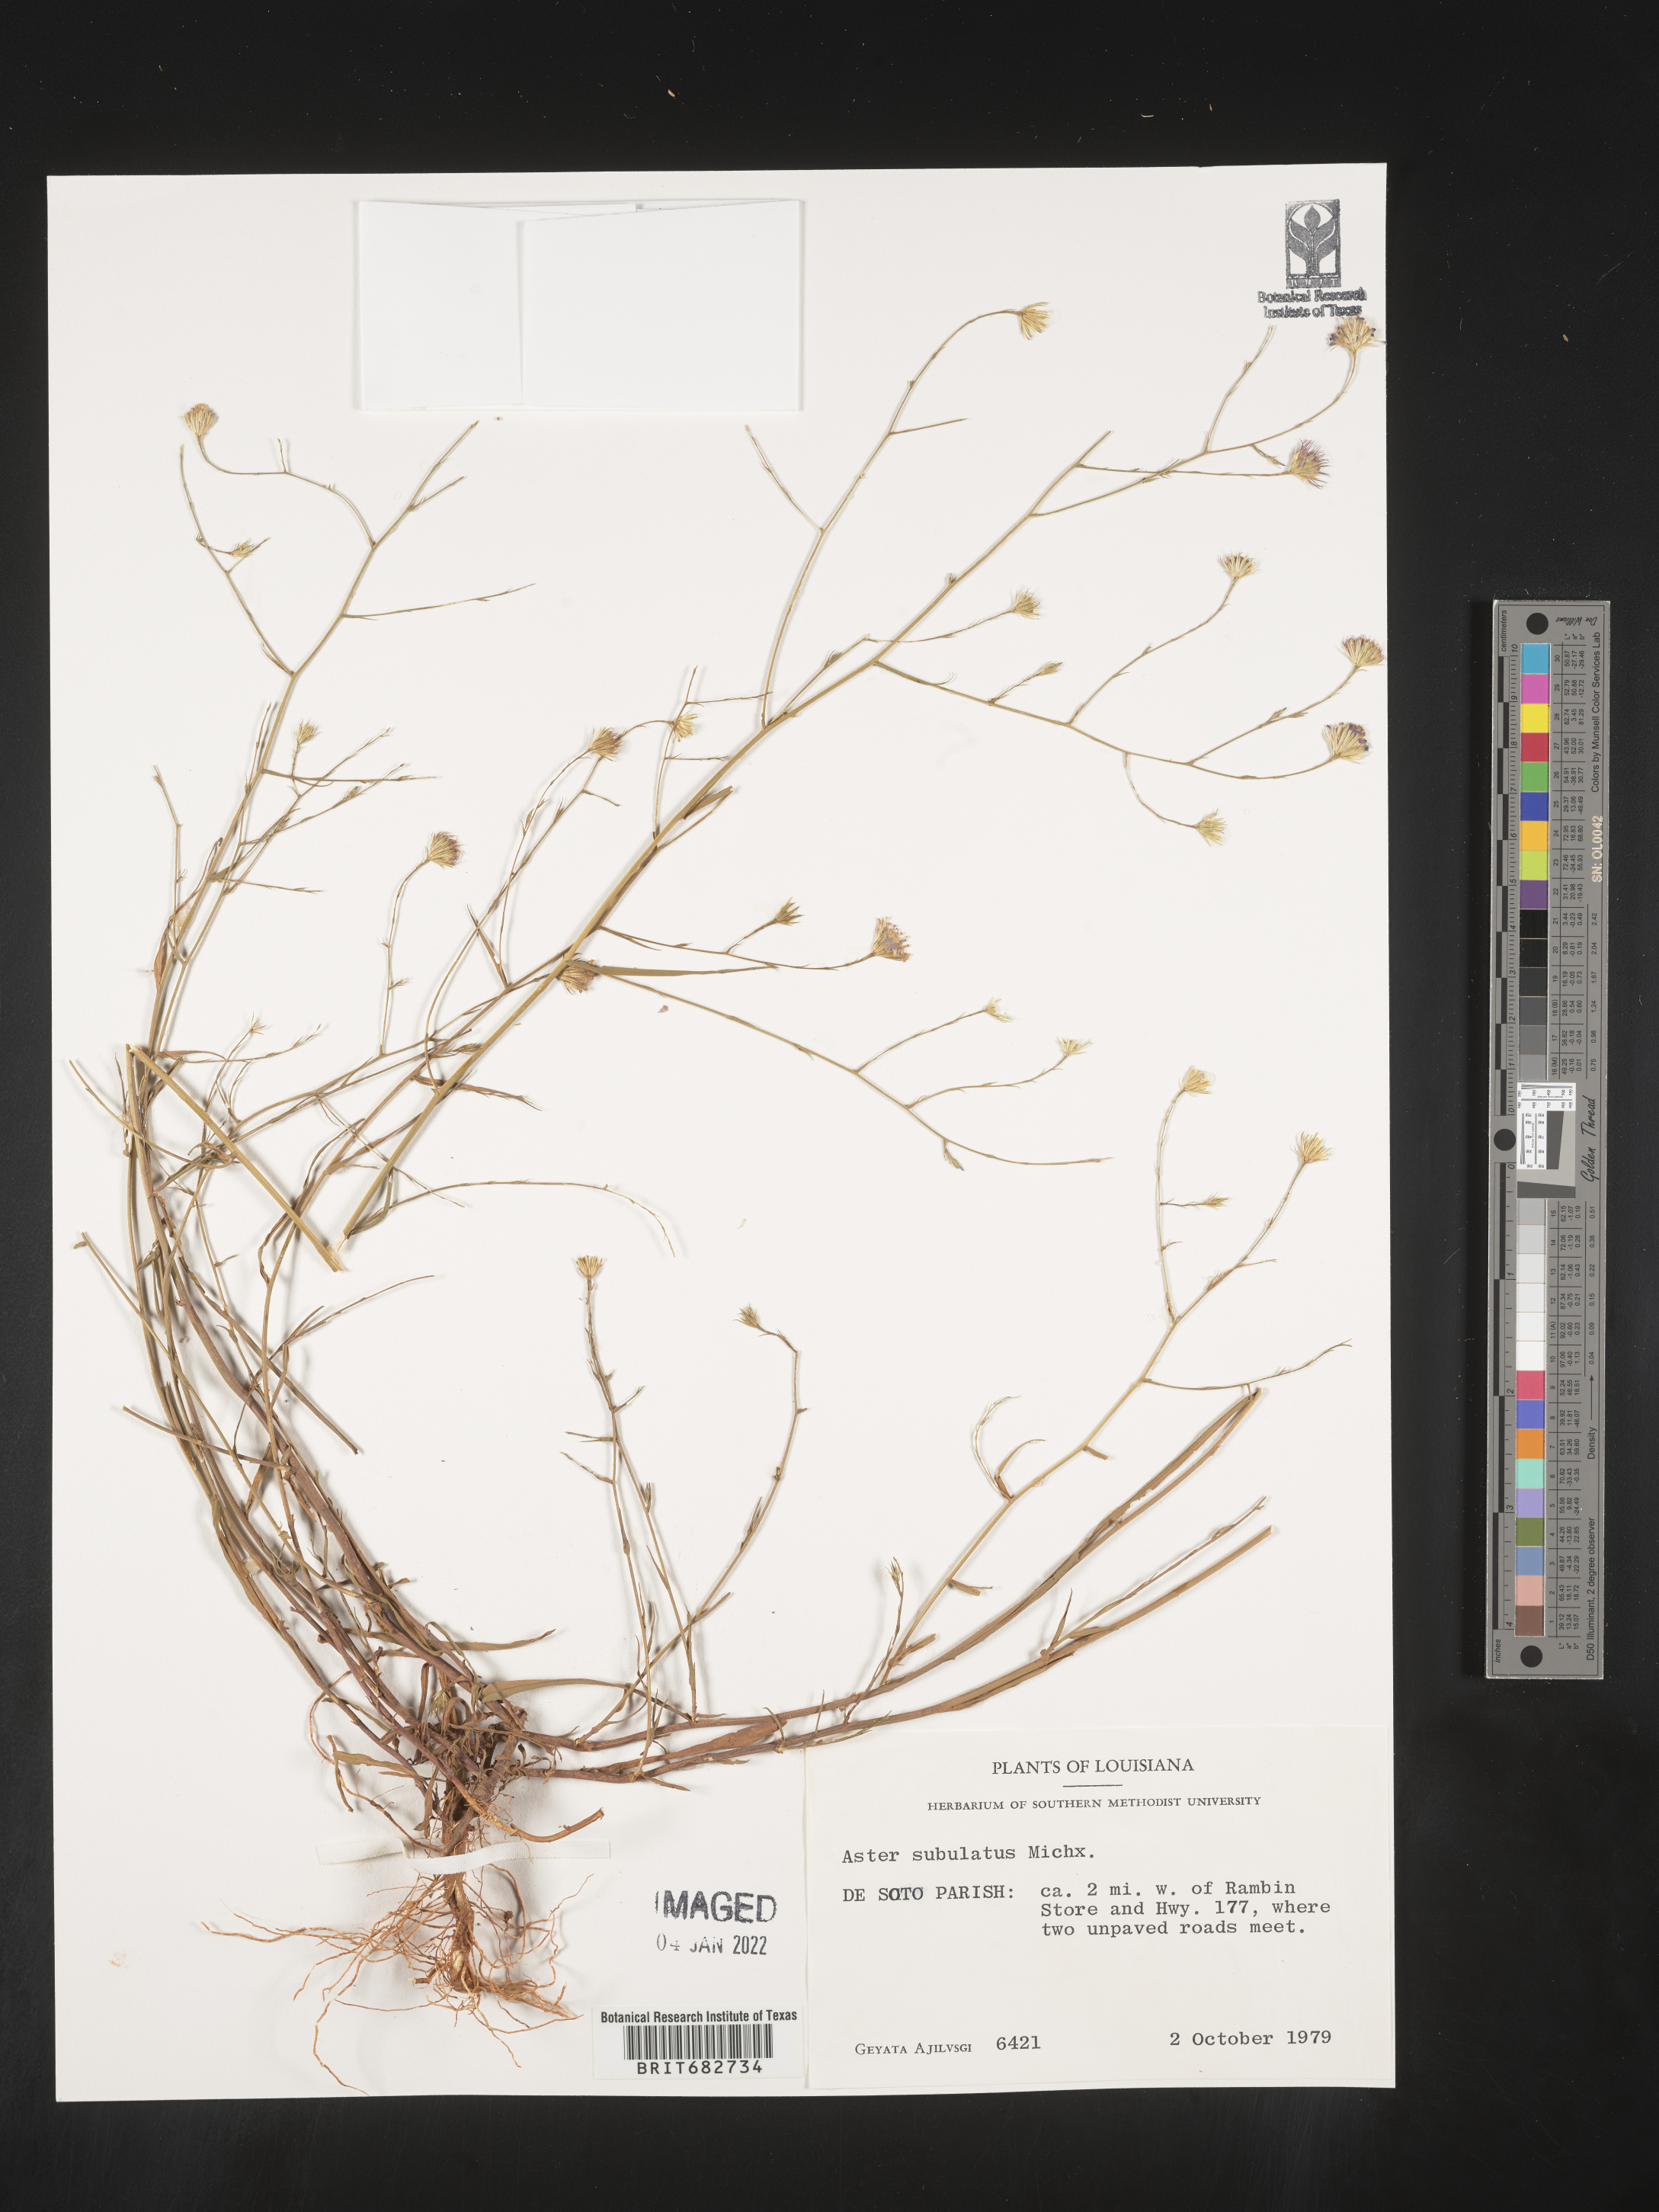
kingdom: Plantae
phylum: Tracheophyta
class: Magnoliopsida
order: Asterales
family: Asteraceae
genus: Aster
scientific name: Aster
